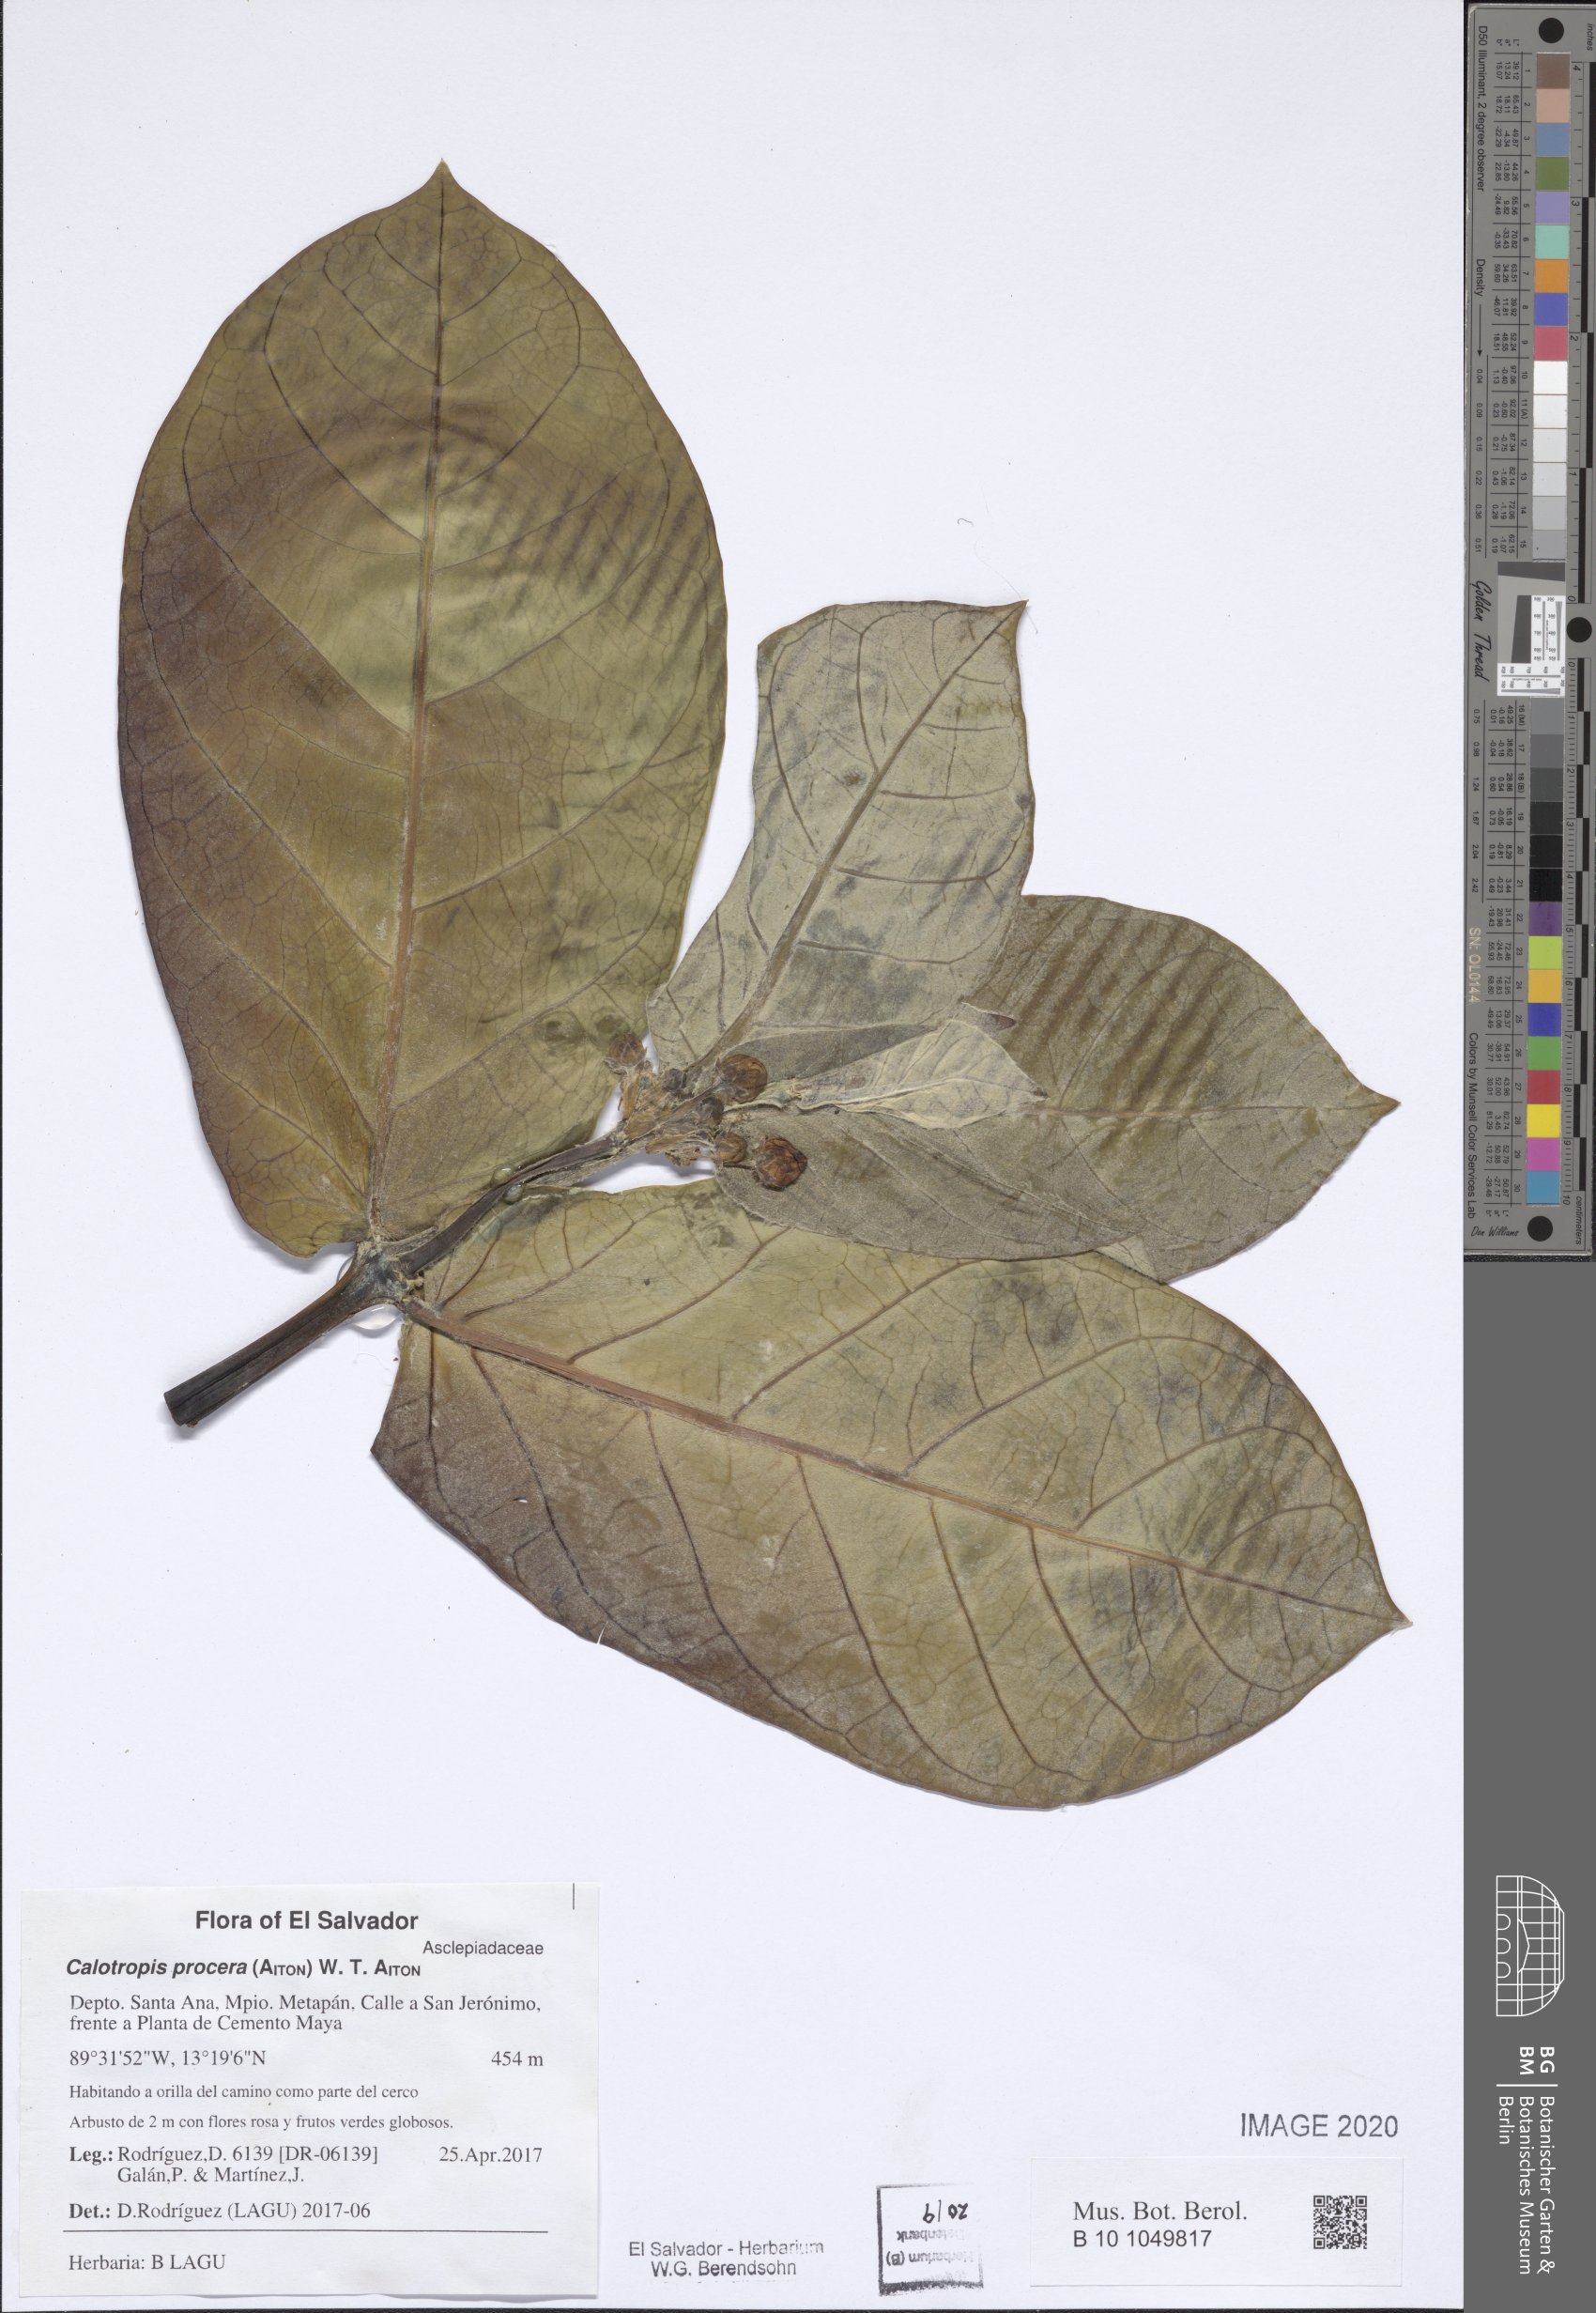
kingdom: Plantae
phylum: Tracheophyta
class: Magnoliopsida
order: Gentianales
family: Apocynaceae
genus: Calotropis
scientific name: Calotropis procera
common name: Roostertree
